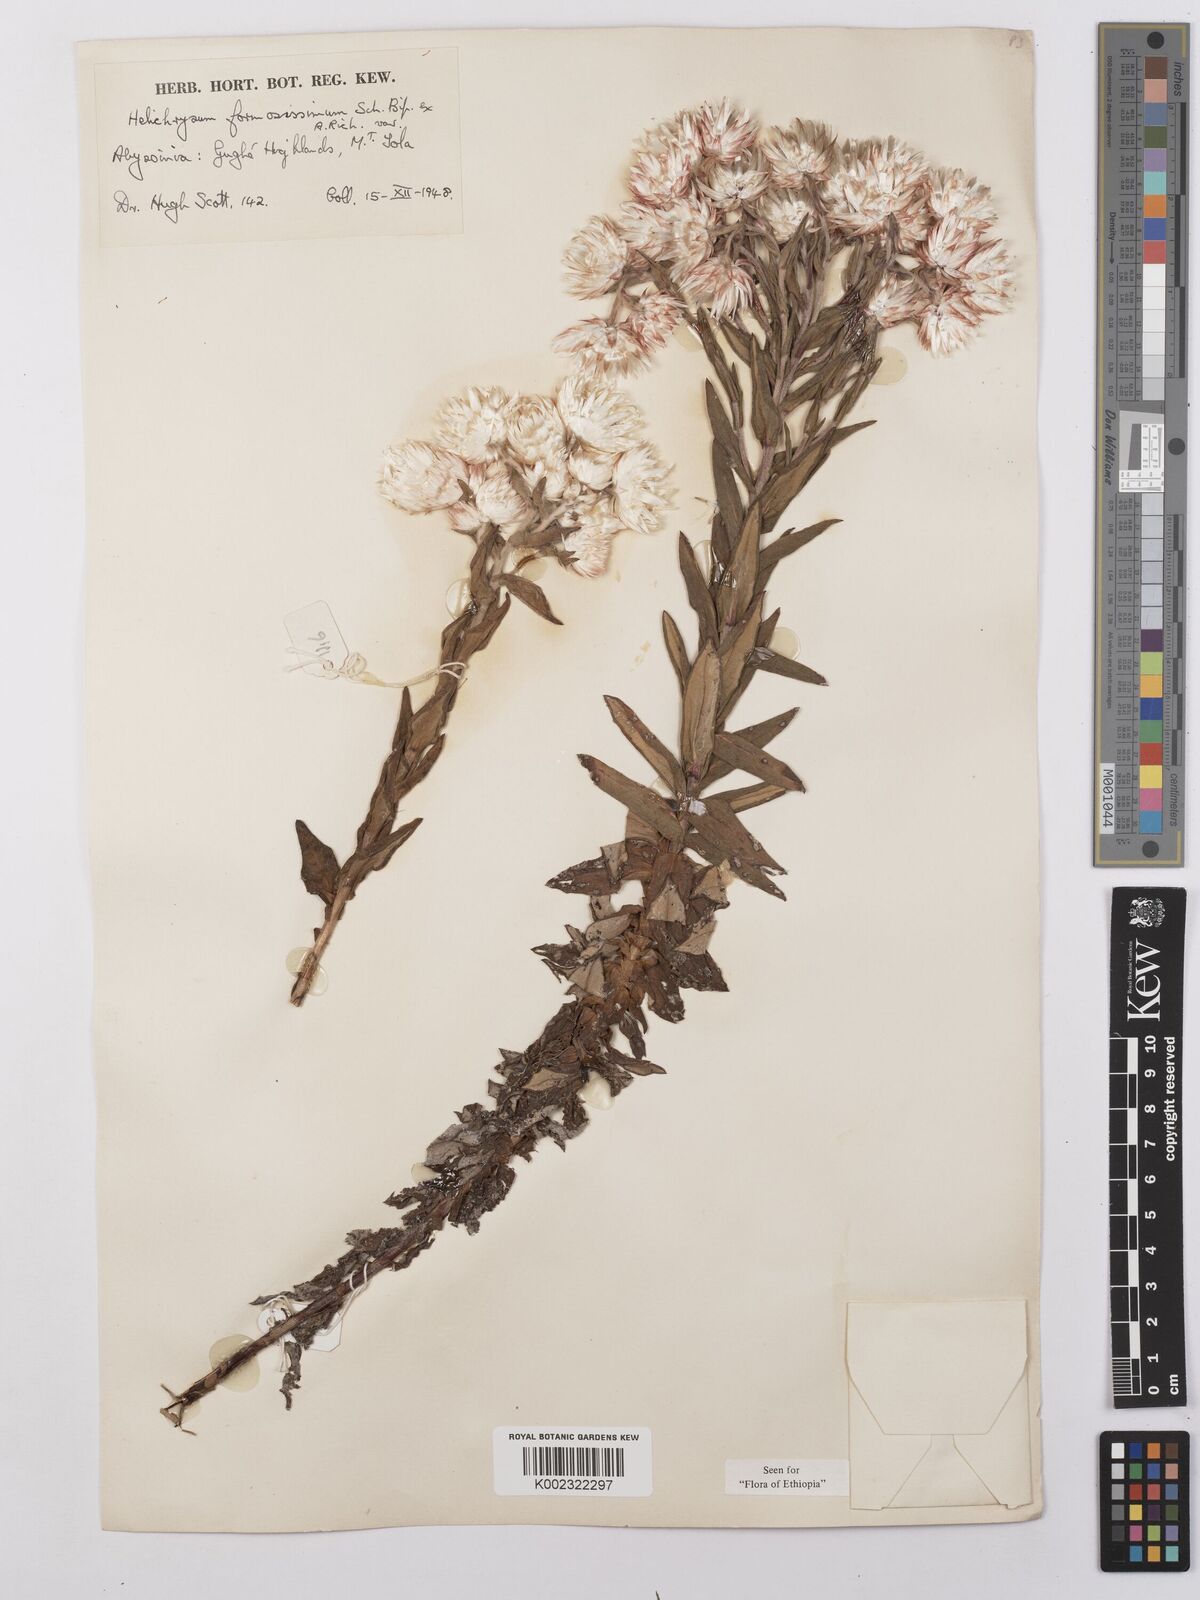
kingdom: Plantae
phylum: Tracheophyta
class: Magnoliopsida
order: Asterales
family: Asteraceae
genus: Helichrysum
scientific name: Helichrysum formosissimum
